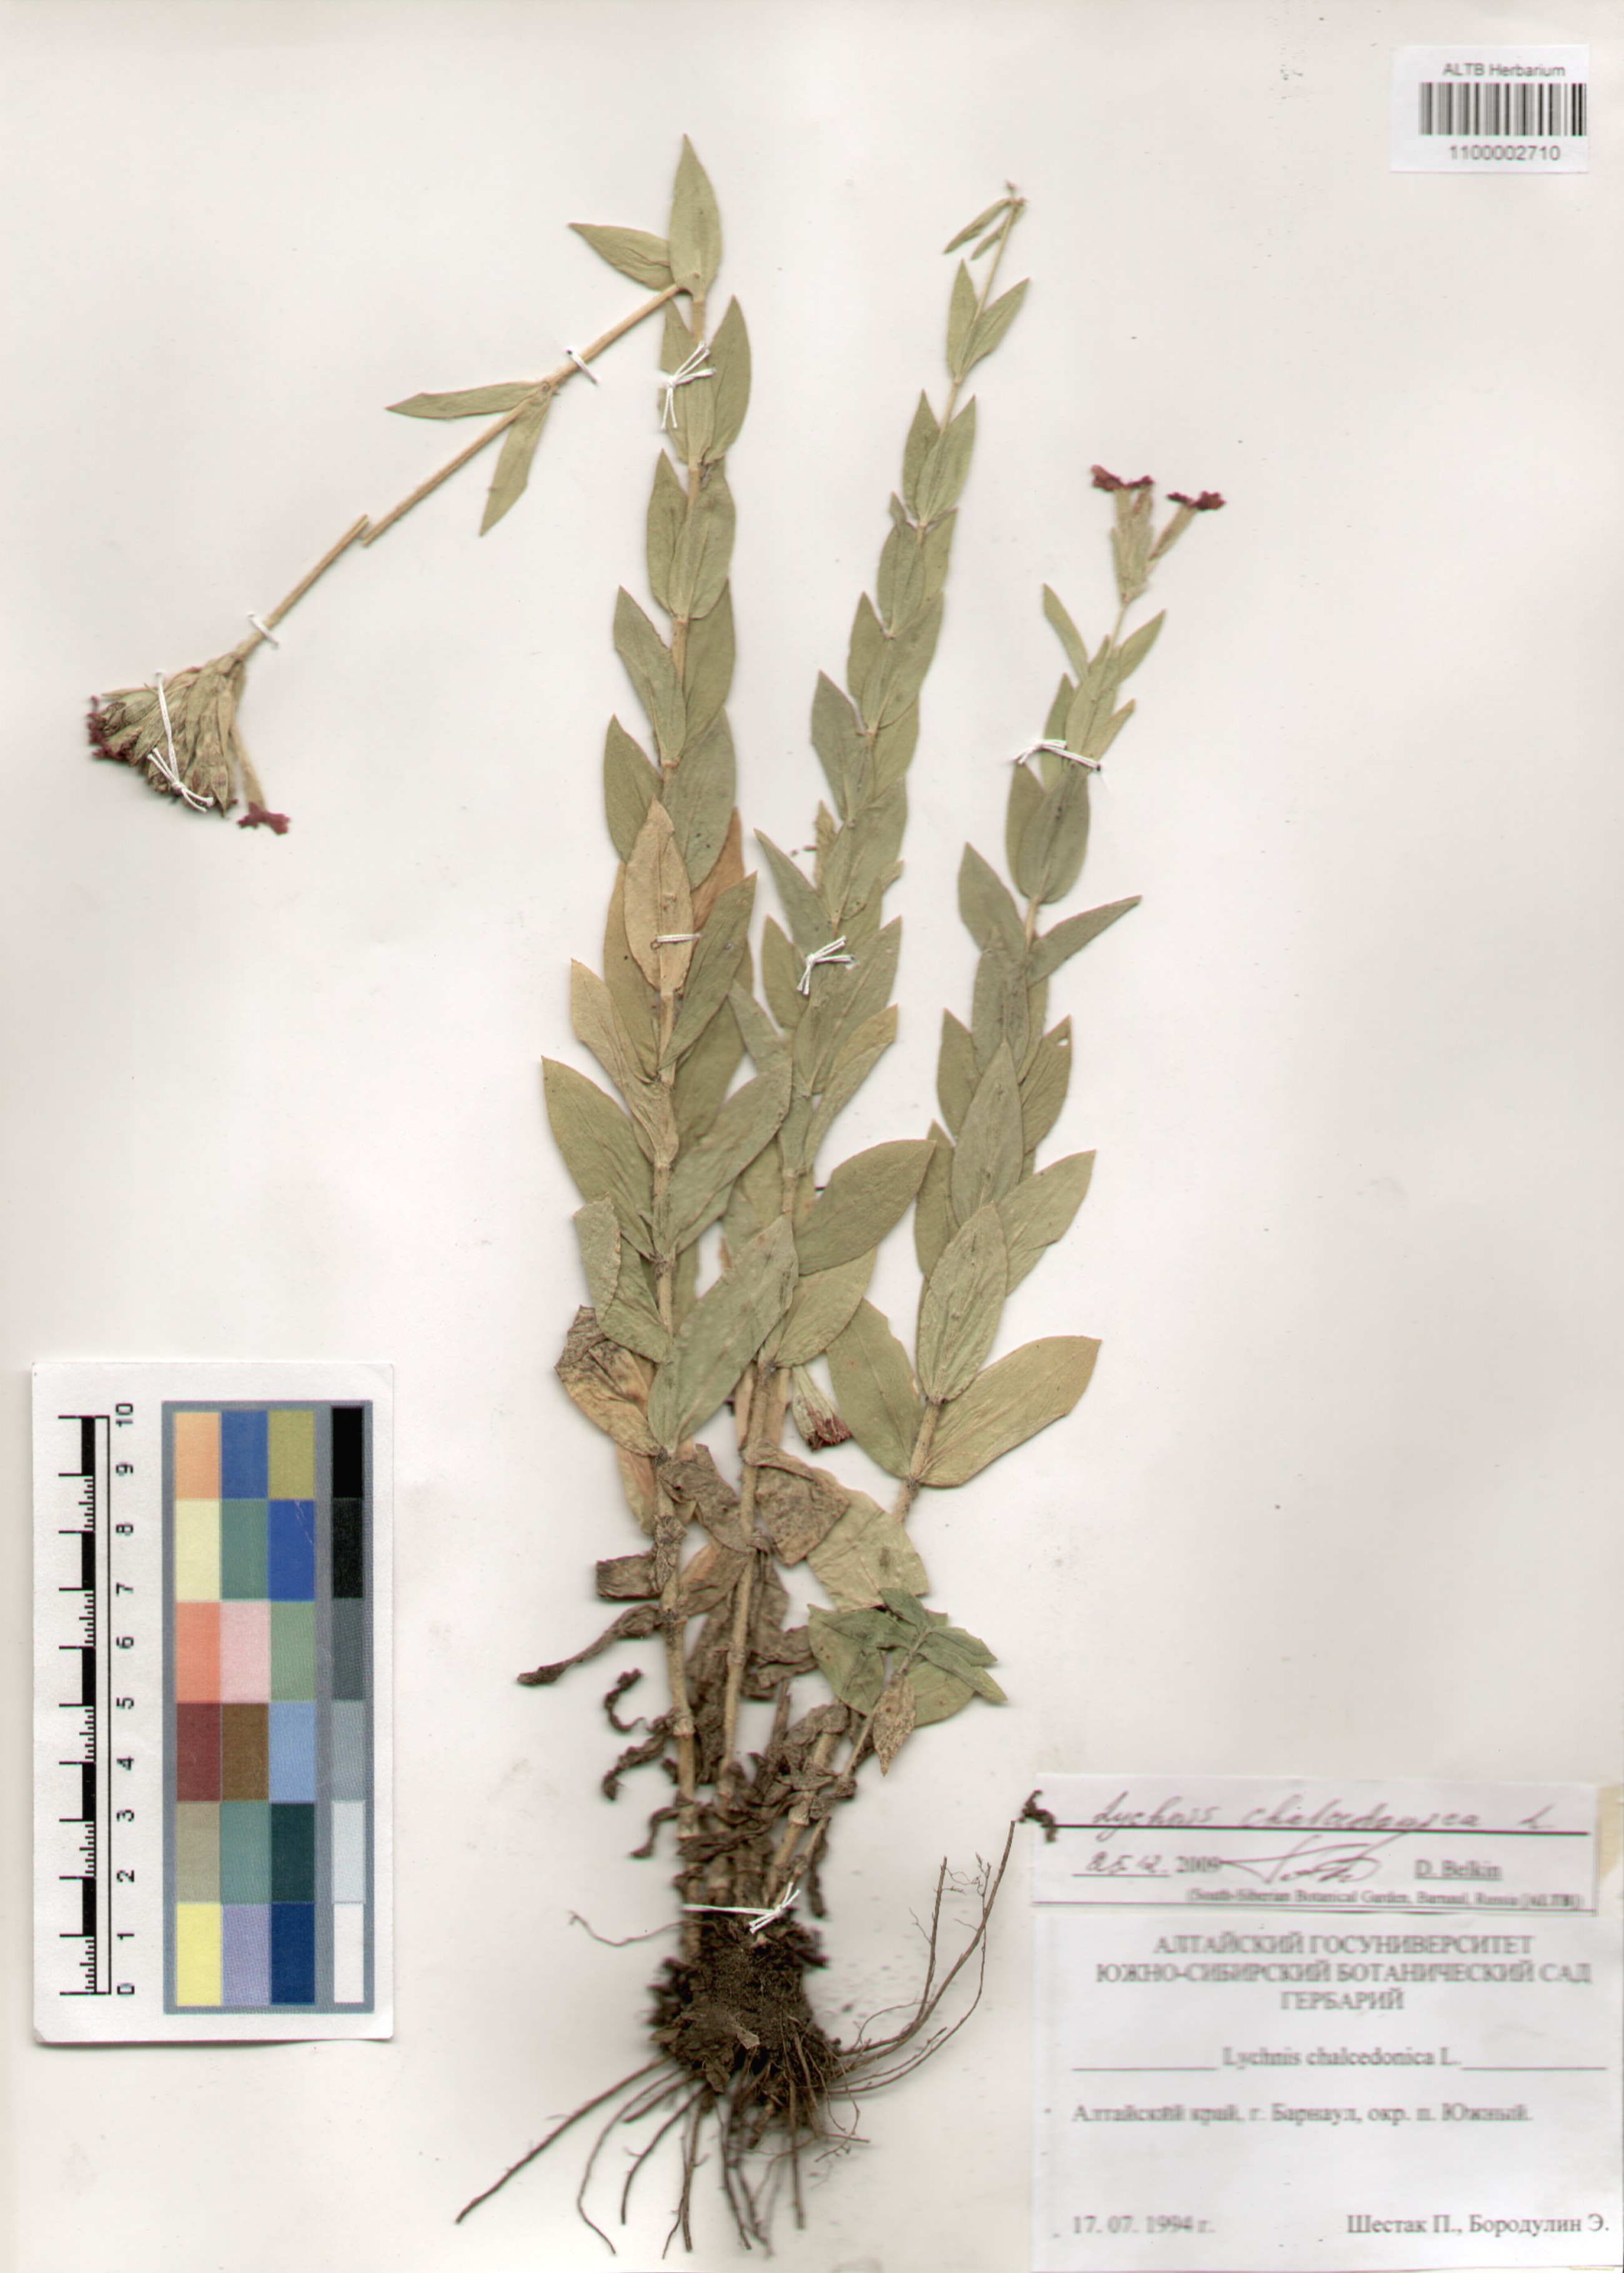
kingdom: Plantae
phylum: Tracheophyta
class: Magnoliopsida
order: Caryophyllales
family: Caryophyllaceae
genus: Silene
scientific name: Silene chalcedonica
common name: Maltese-cross
